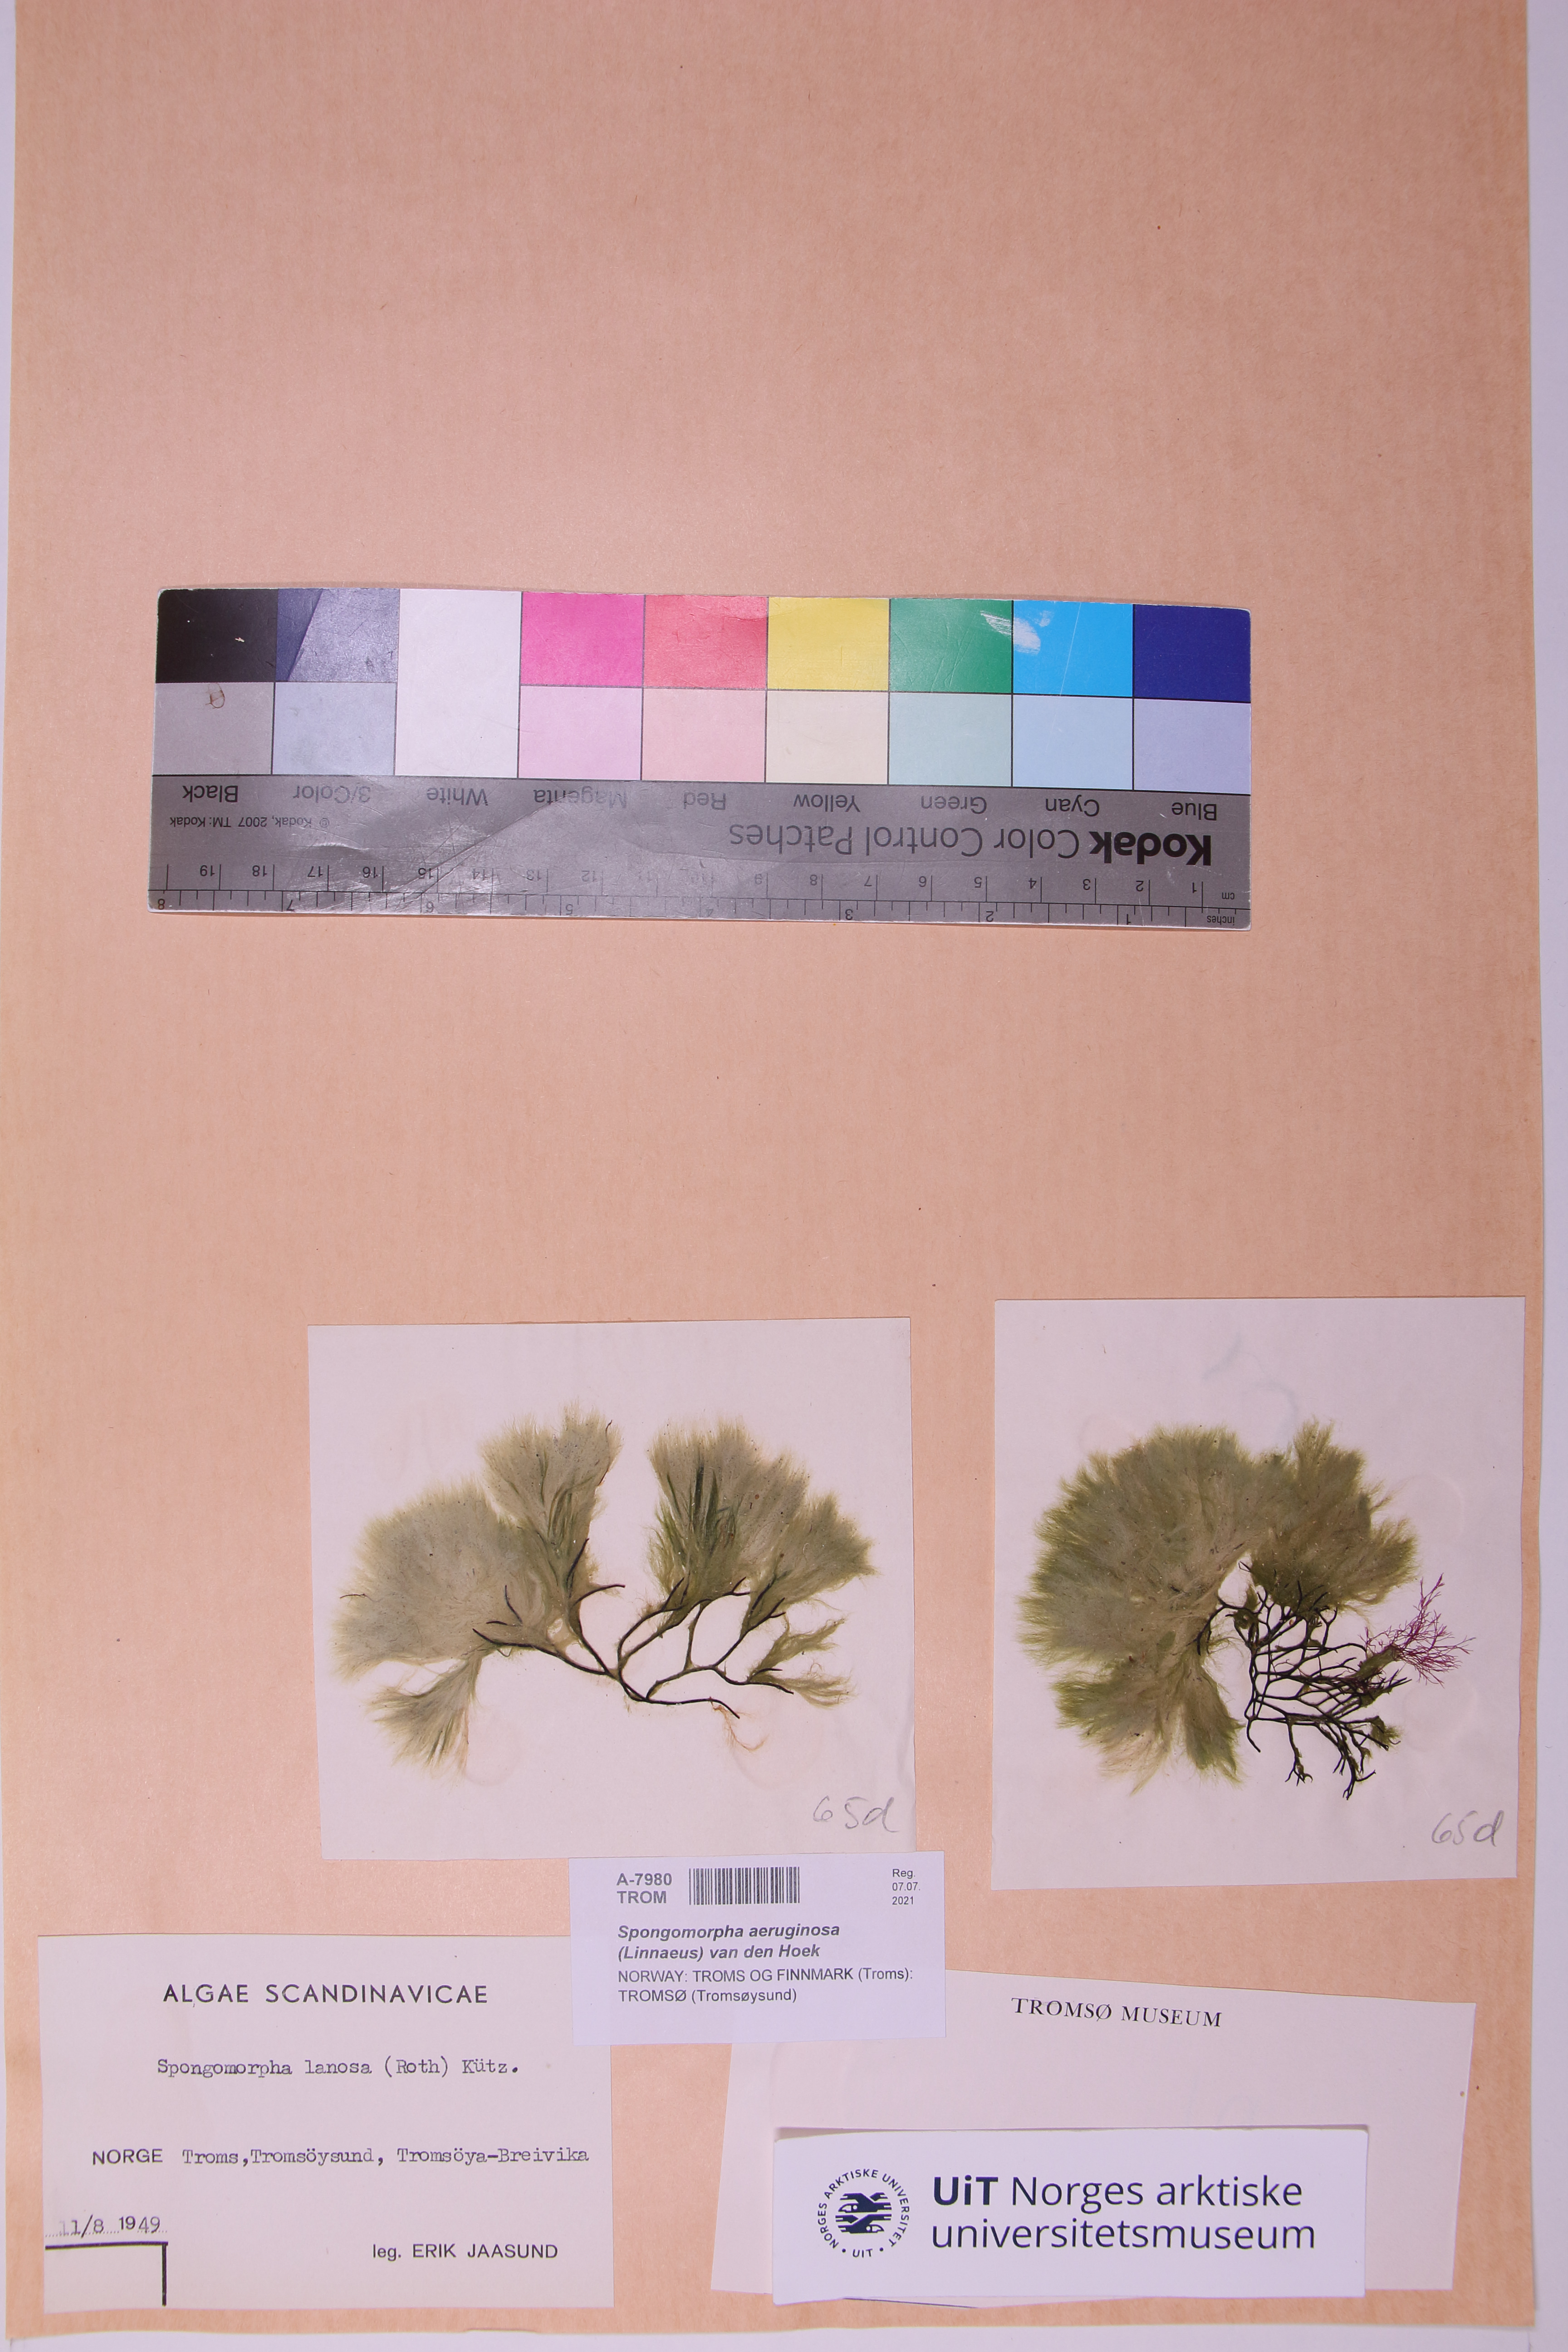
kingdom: Plantae
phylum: Chlorophyta
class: Ulvophyceae
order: Ulotrichales
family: Ulotrichaceae
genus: Spongomorpha
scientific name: Spongomorpha aeruginosa
